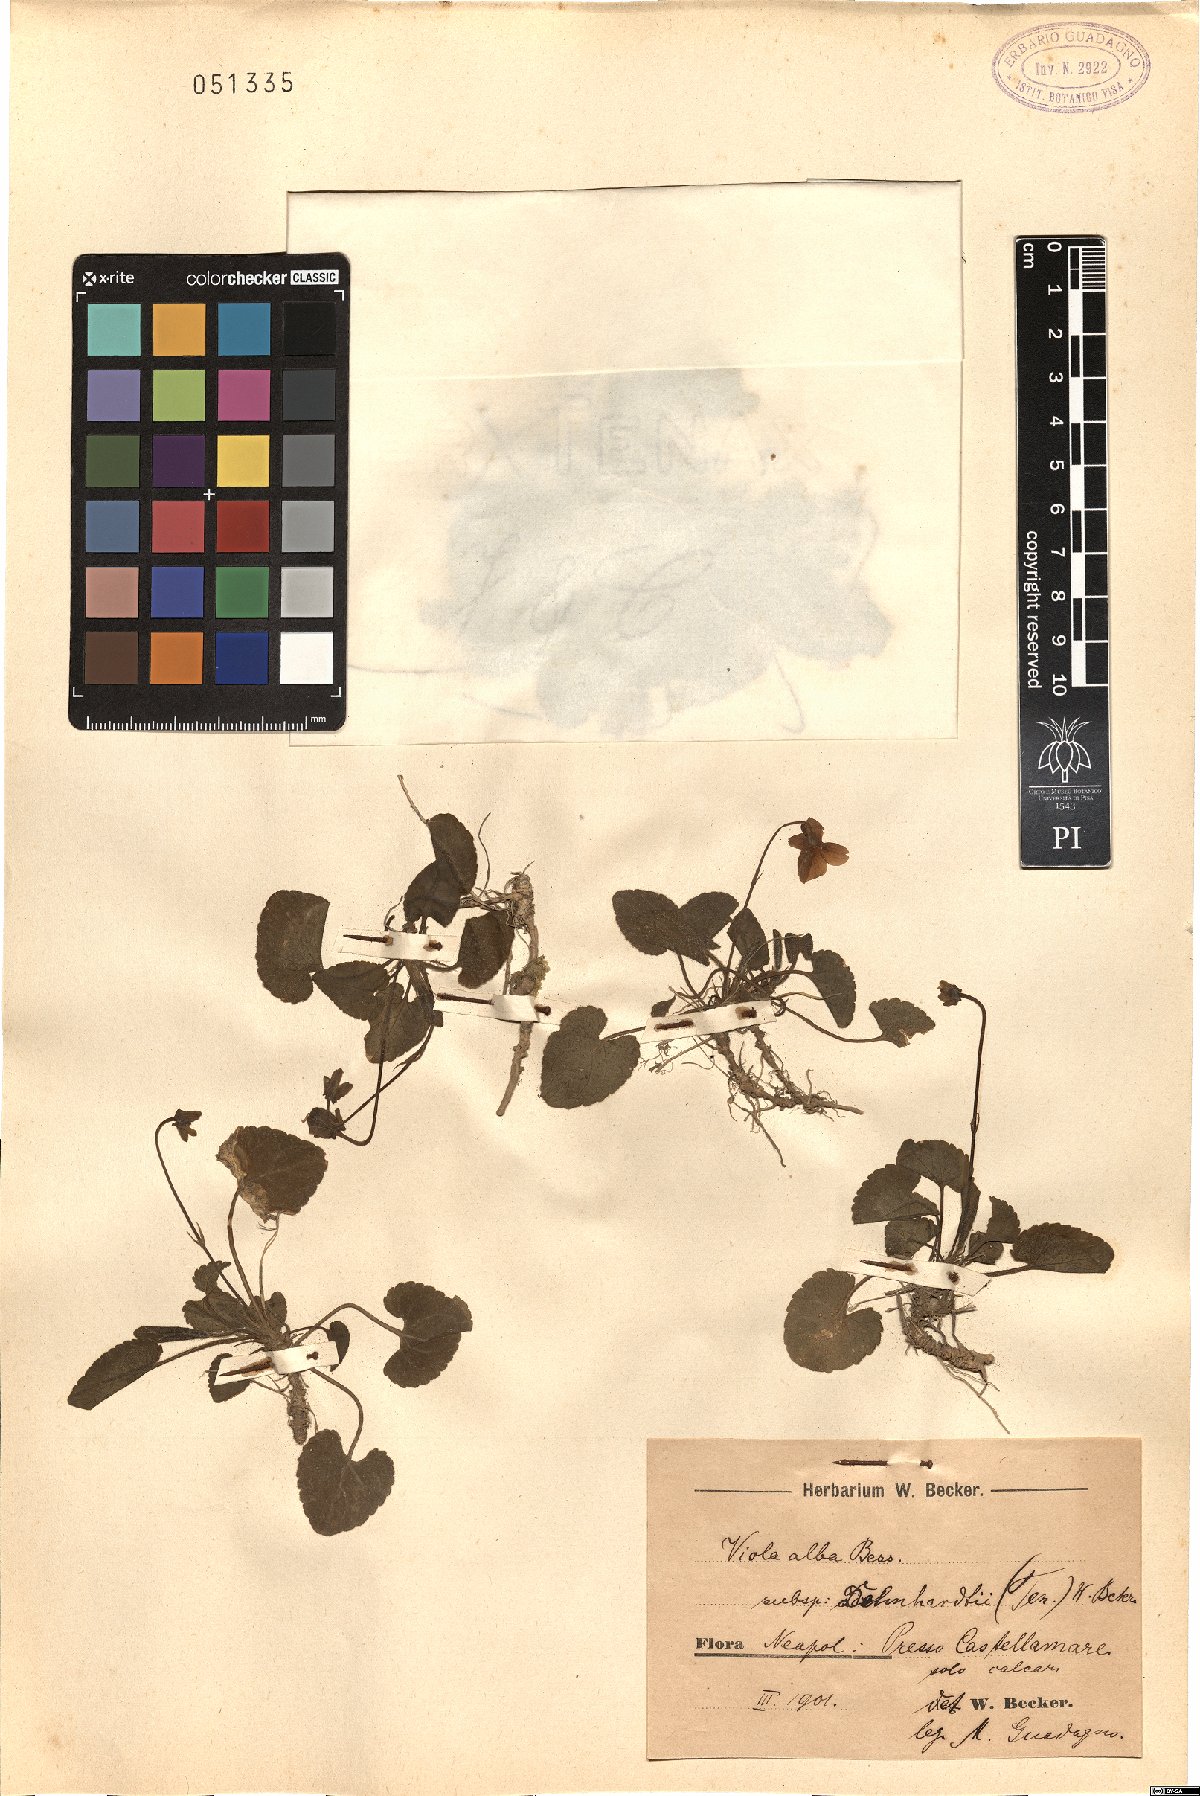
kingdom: Plantae
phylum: Tracheophyta
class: Magnoliopsida
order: Malpighiales
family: Violaceae
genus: Viola
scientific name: Viola alba
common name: White violet
